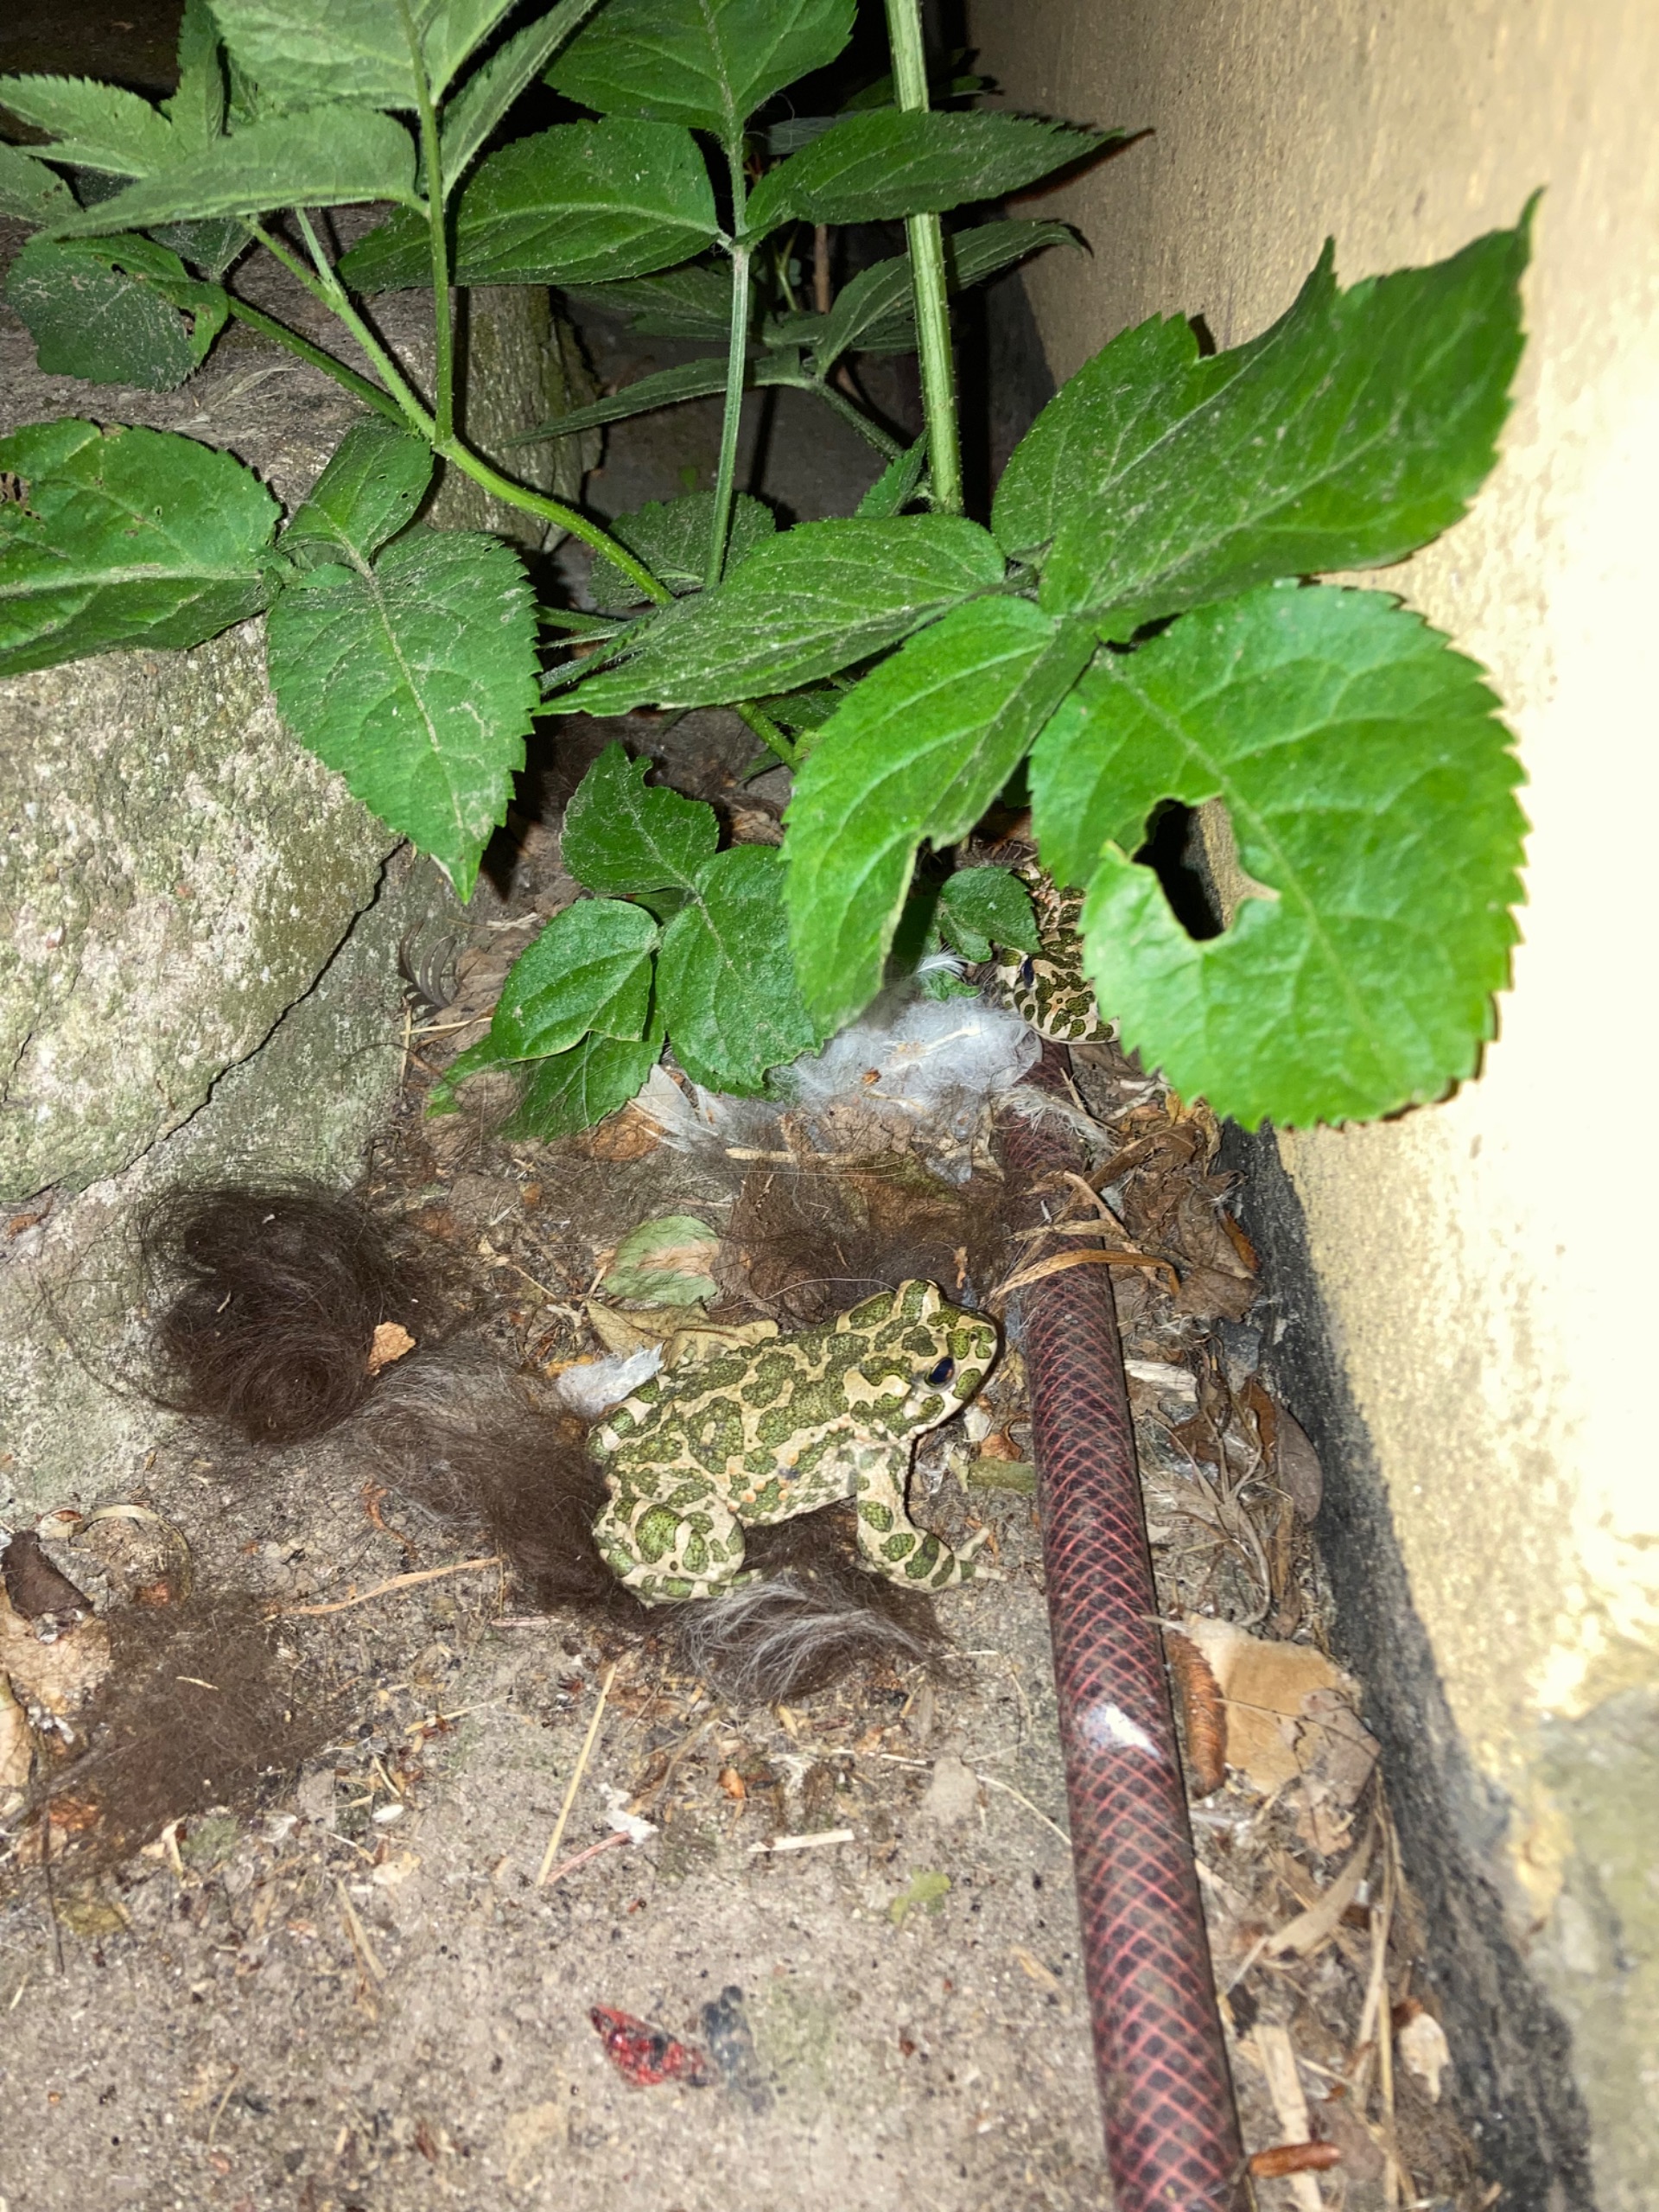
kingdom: Animalia
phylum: Chordata
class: Amphibia
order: Anura
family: Bufonidae
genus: Bufotes
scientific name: Bufotes viridis
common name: Grønbroget tudse
